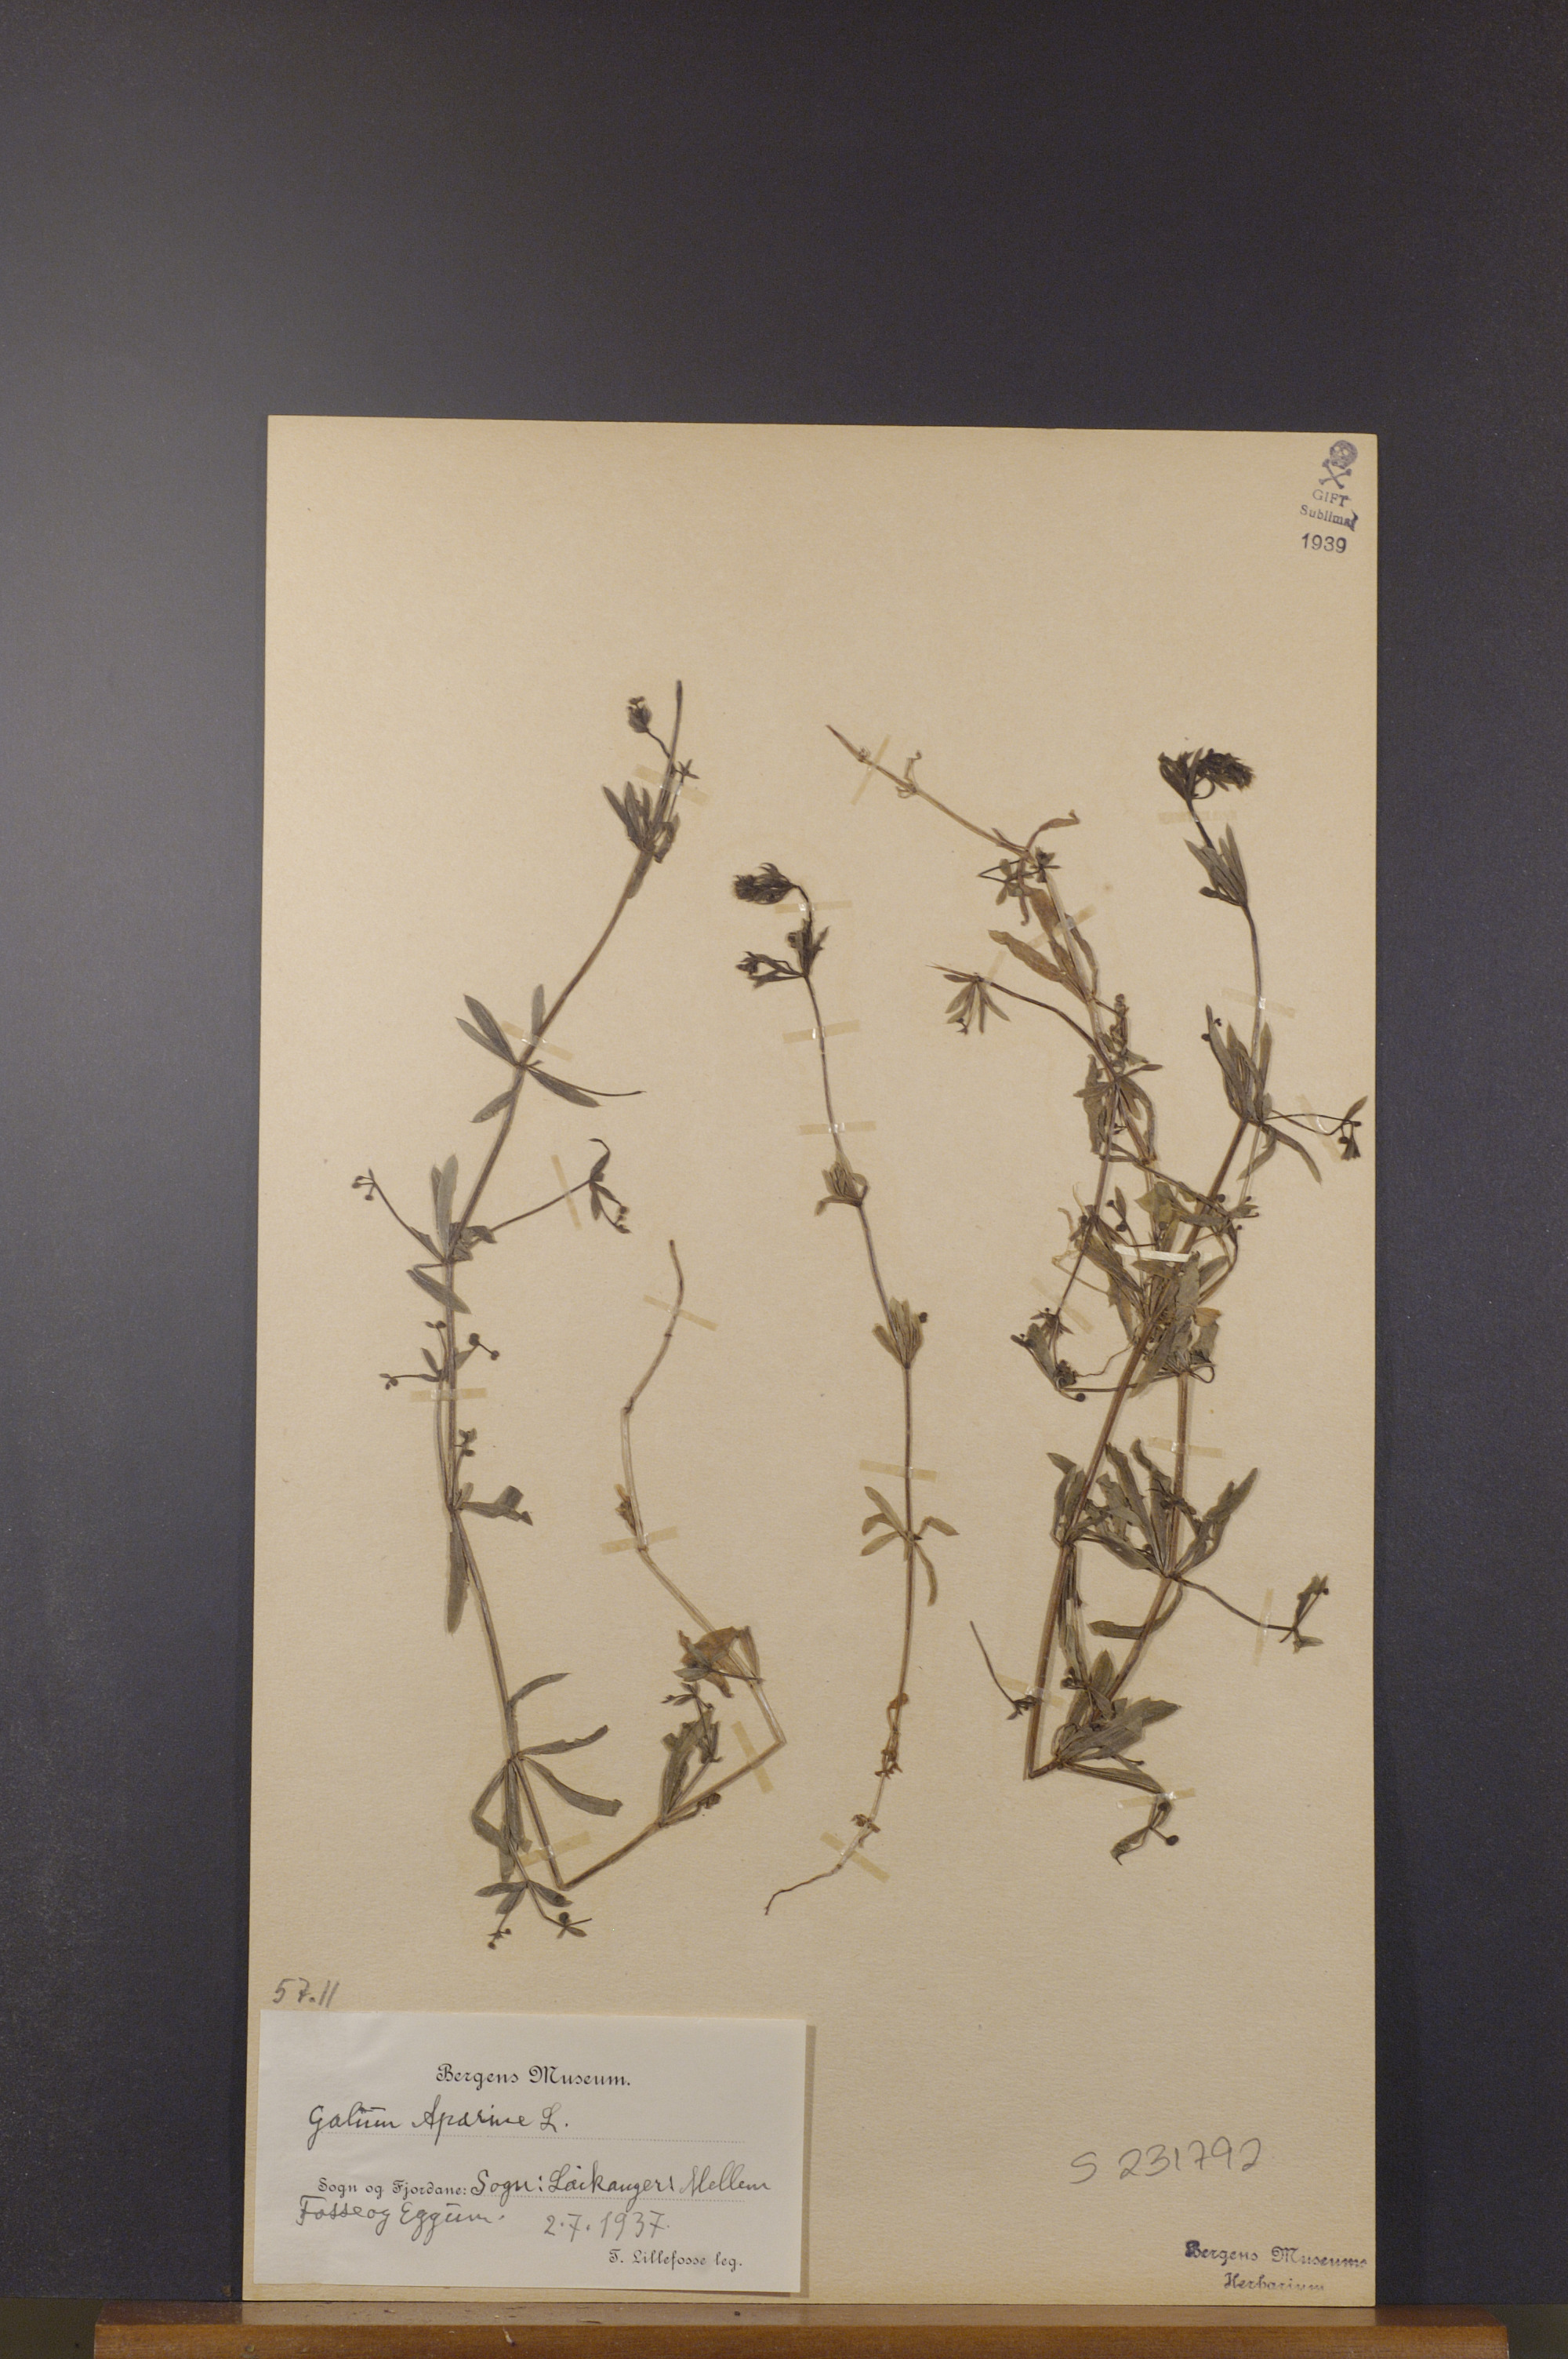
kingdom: Plantae
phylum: Tracheophyta
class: Magnoliopsida
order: Gentianales
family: Rubiaceae
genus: Galium
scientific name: Galium aparine
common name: Cleavers
